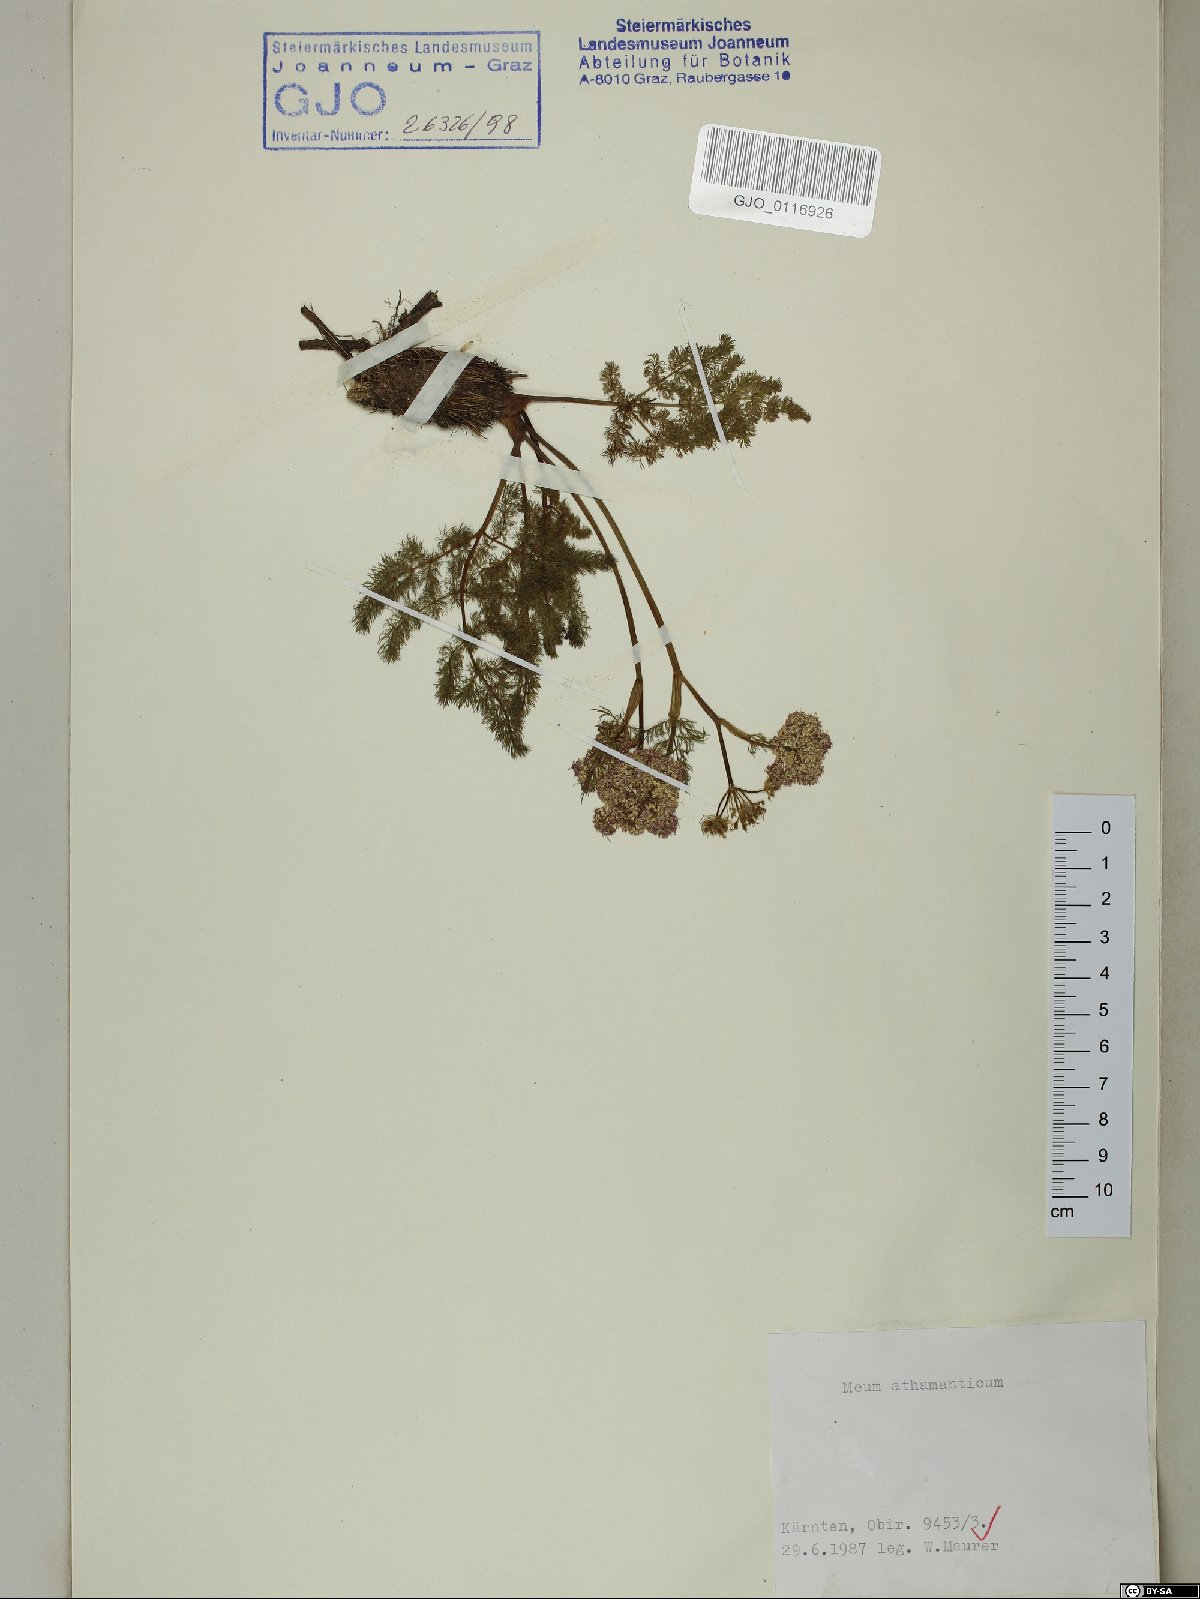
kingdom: Plantae
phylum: Tracheophyta
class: Magnoliopsida
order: Apiales
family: Apiaceae
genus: Meum
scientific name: Meum athamanticum
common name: Spignel
